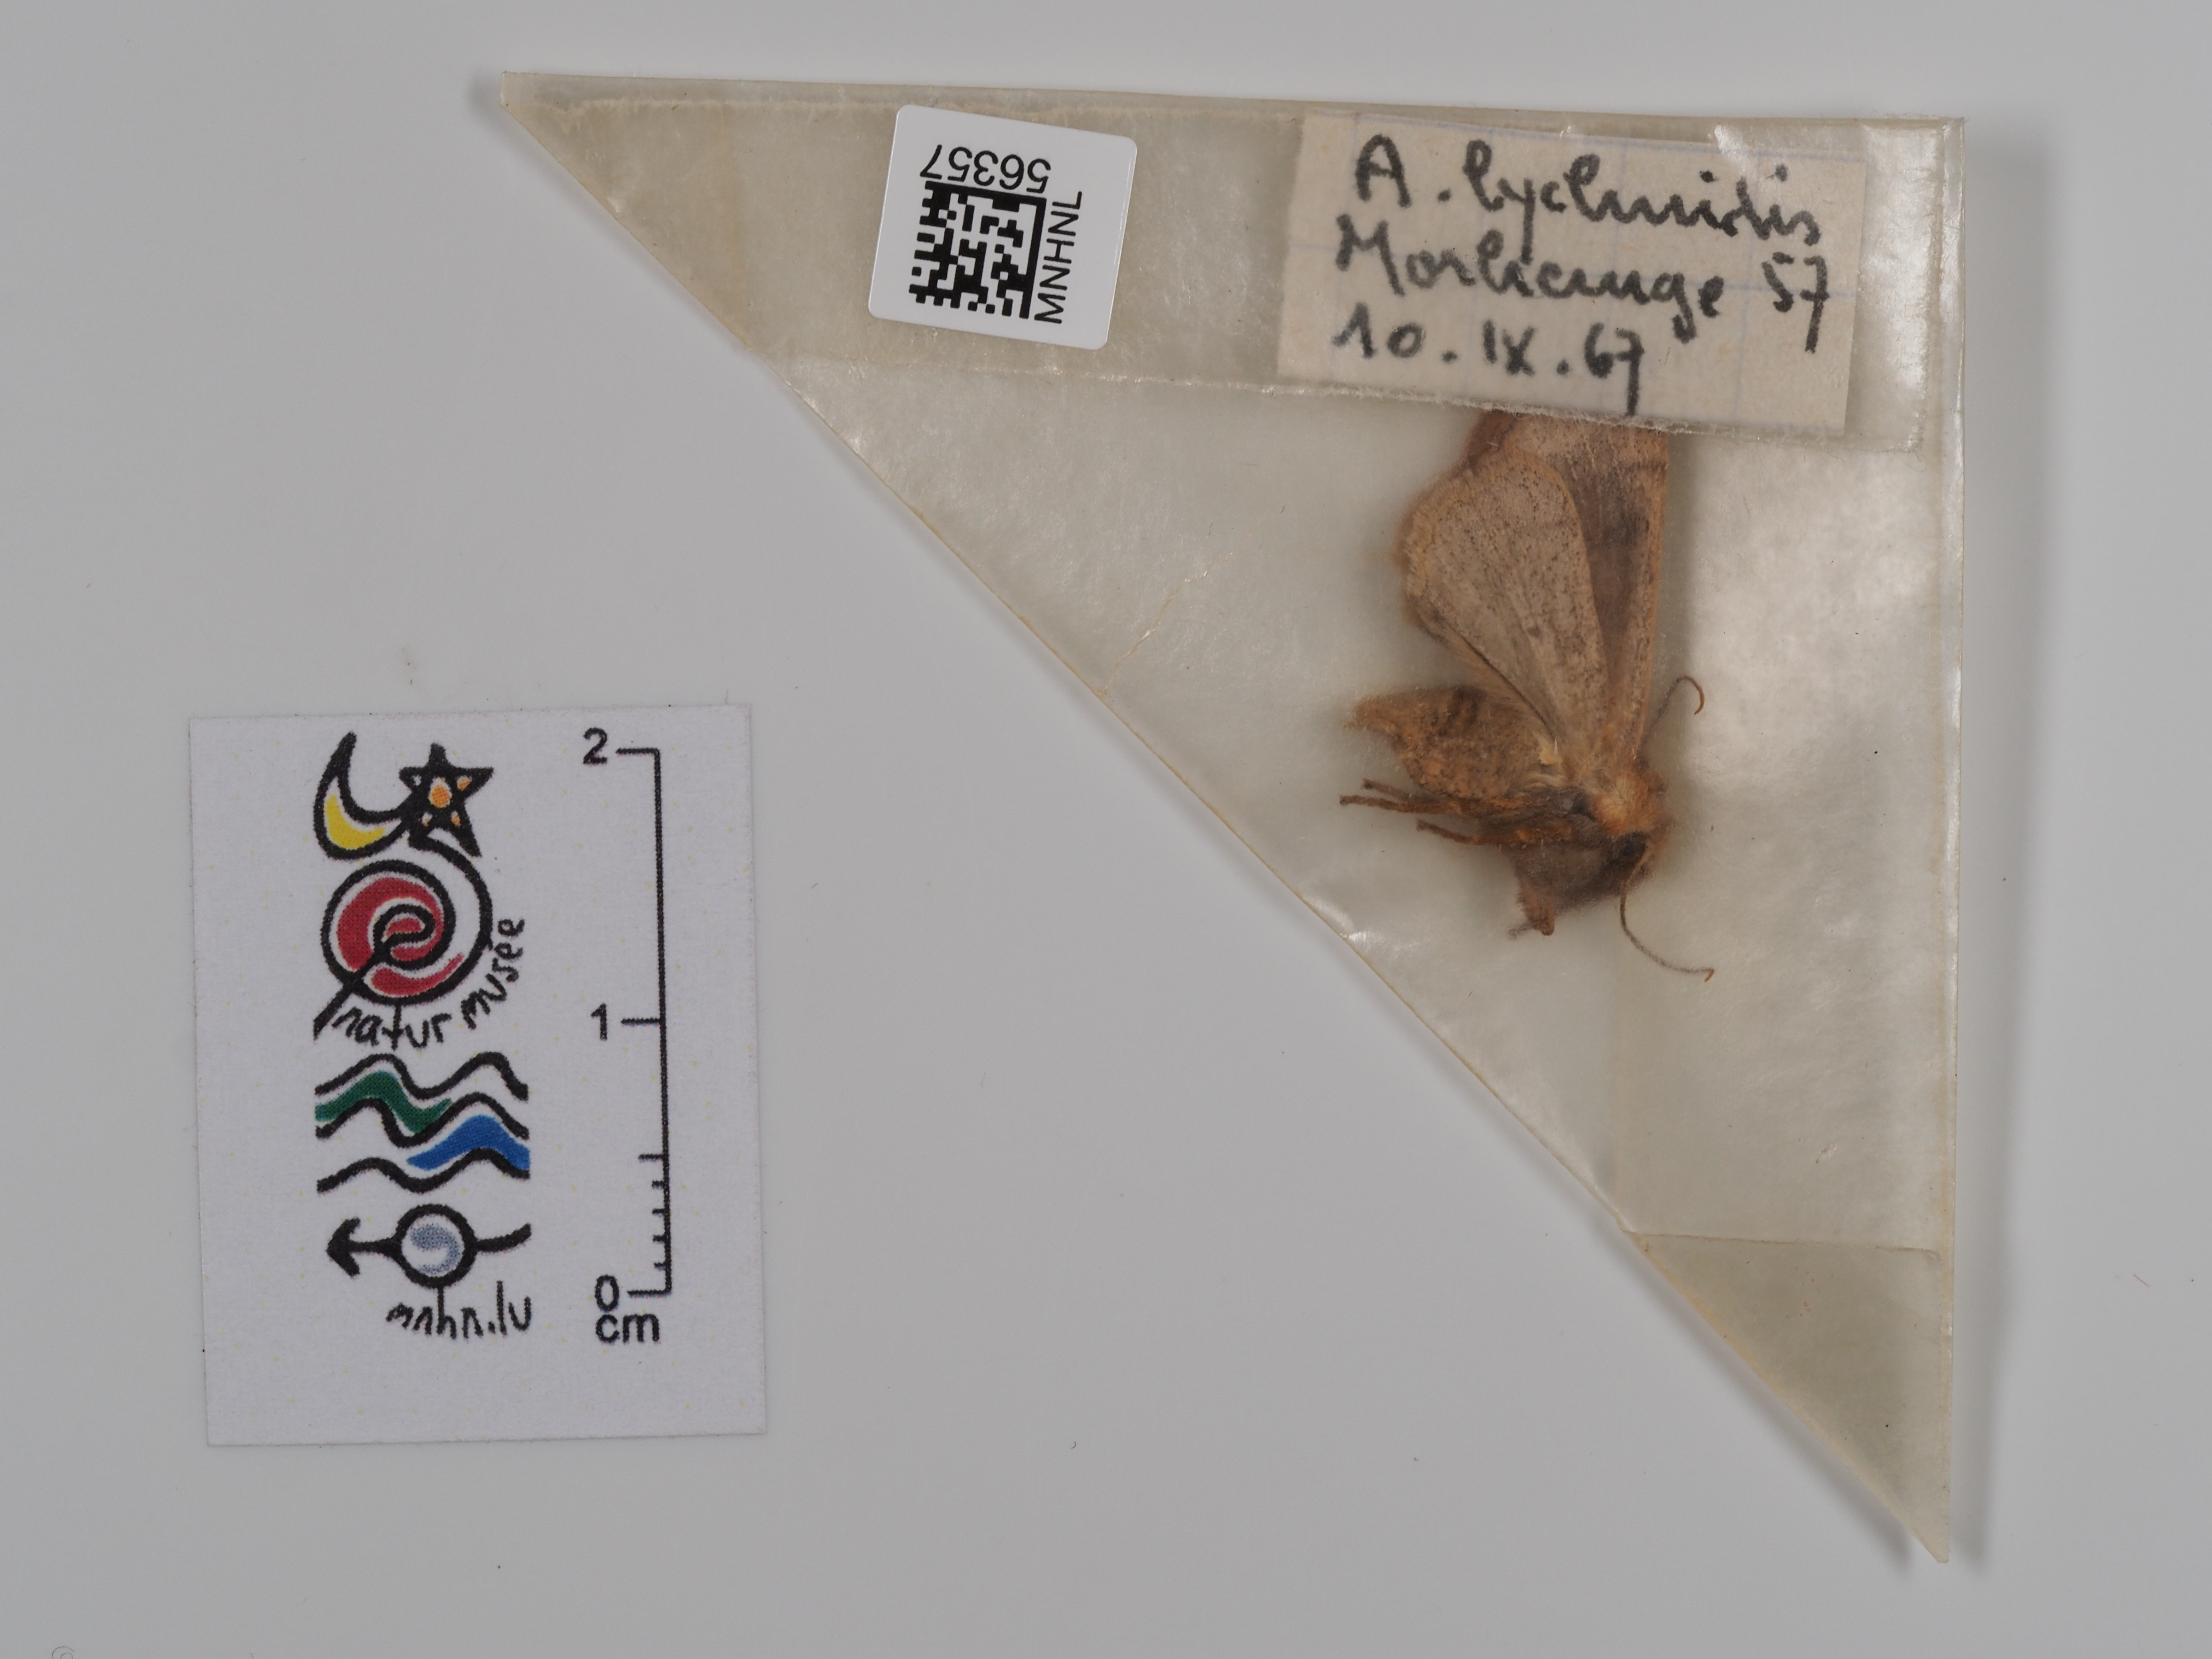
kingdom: Animalia
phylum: Arthropoda
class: Insecta
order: Lepidoptera
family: Noctuidae
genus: Agrochola
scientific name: Agrochola lychnidis
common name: Beaded chestnut
